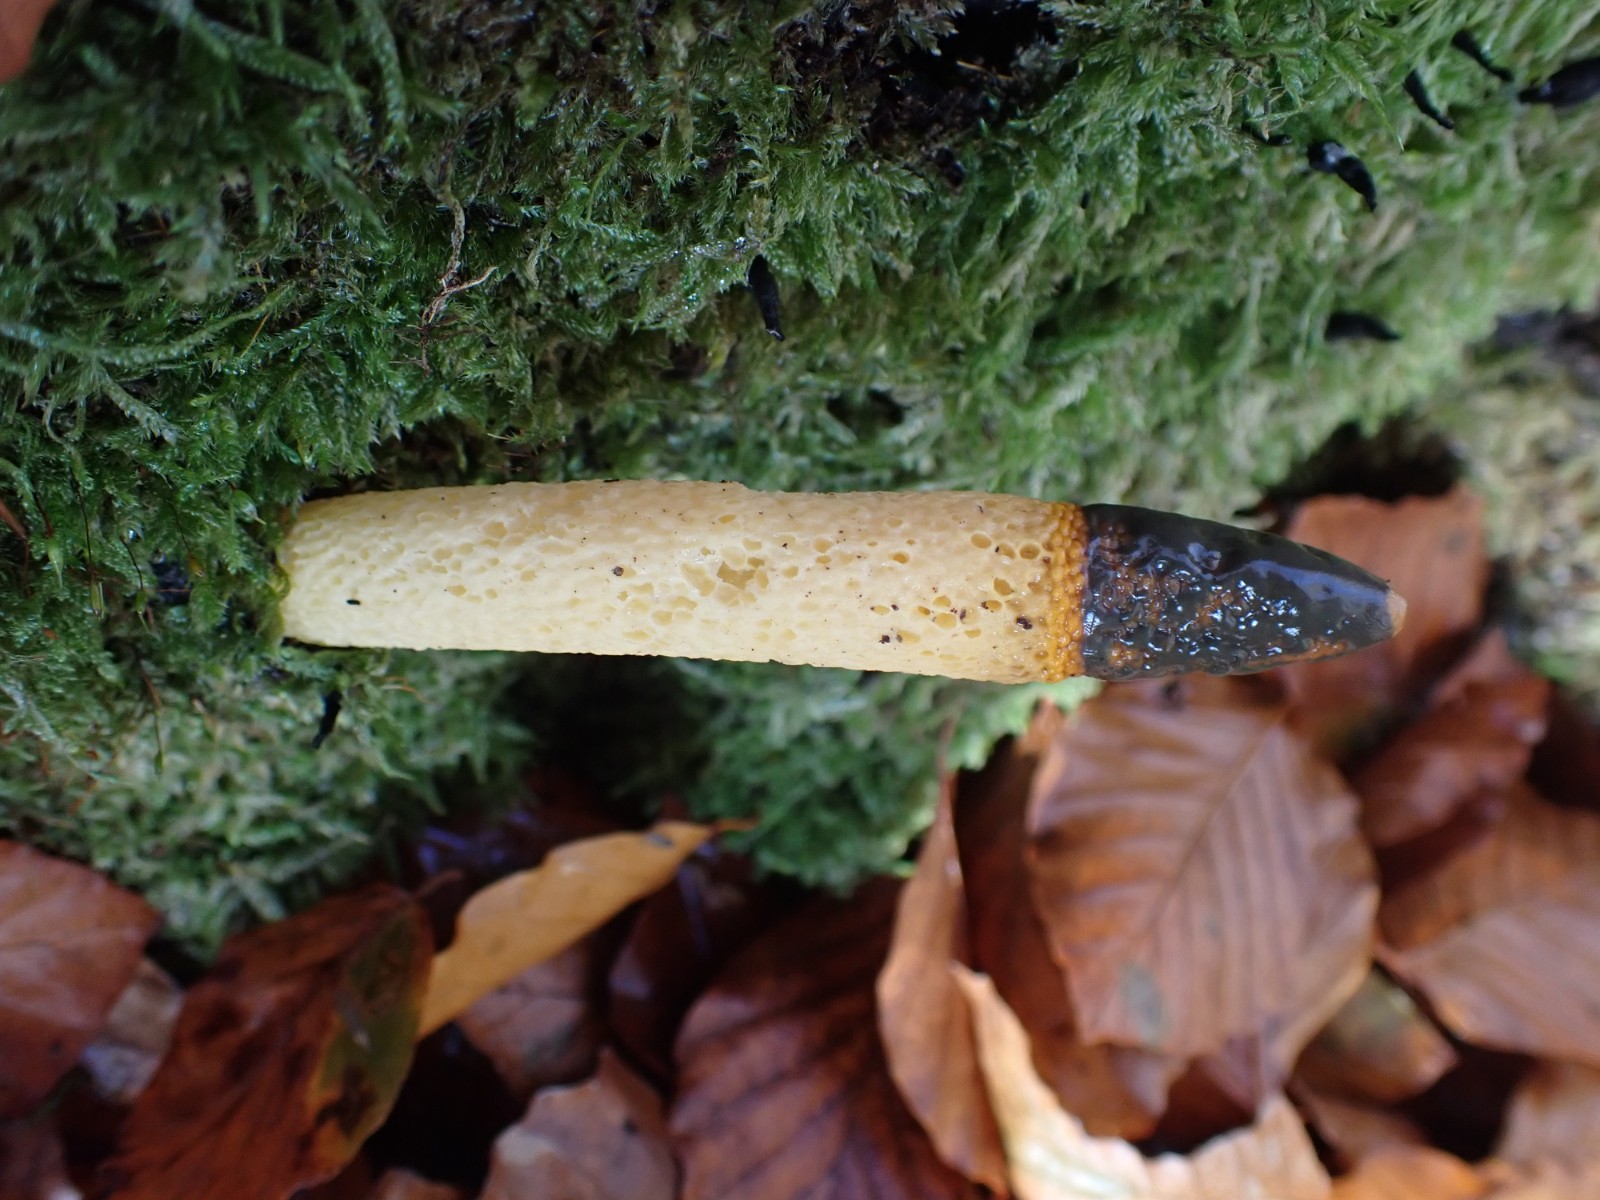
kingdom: Fungi
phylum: Basidiomycota
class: Agaricomycetes
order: Phallales
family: Phallaceae
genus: Mutinus
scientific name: Mutinus caninus
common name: hunde-stinksvamp
